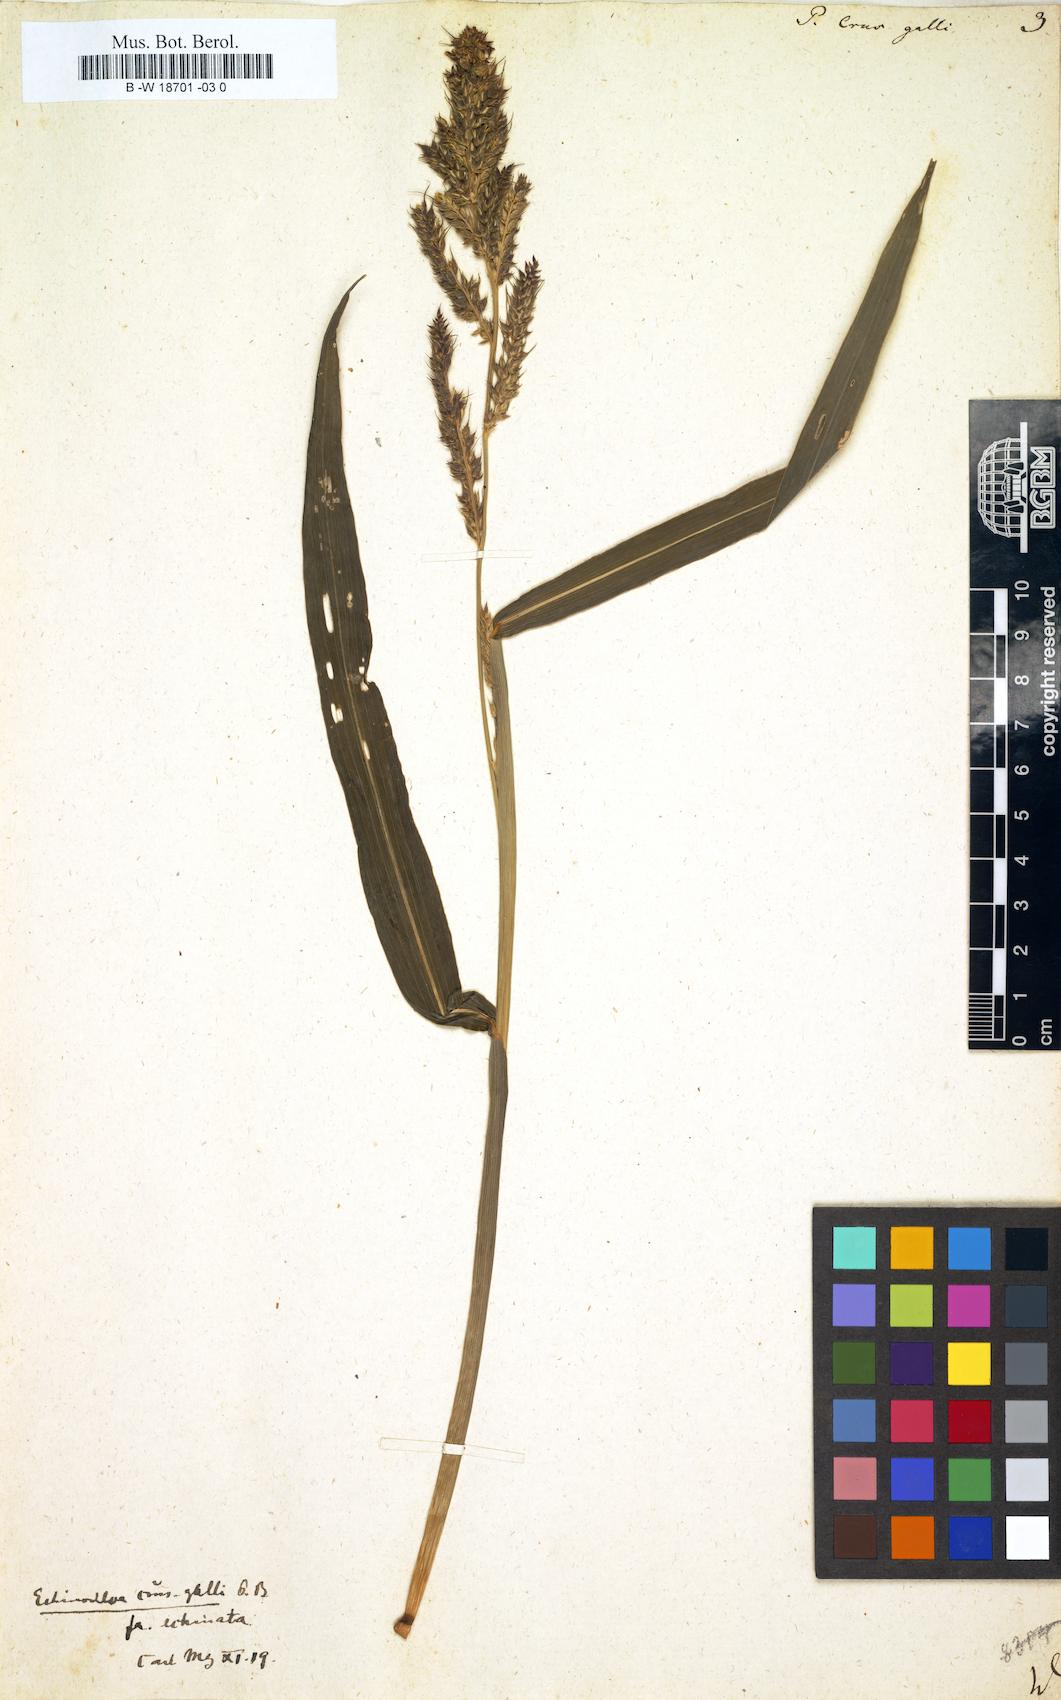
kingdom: Plantae
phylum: Tracheophyta
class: Liliopsida
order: Poales
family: Poaceae
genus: Echinochloa
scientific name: Echinochloa crus-galli
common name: Cockspur
